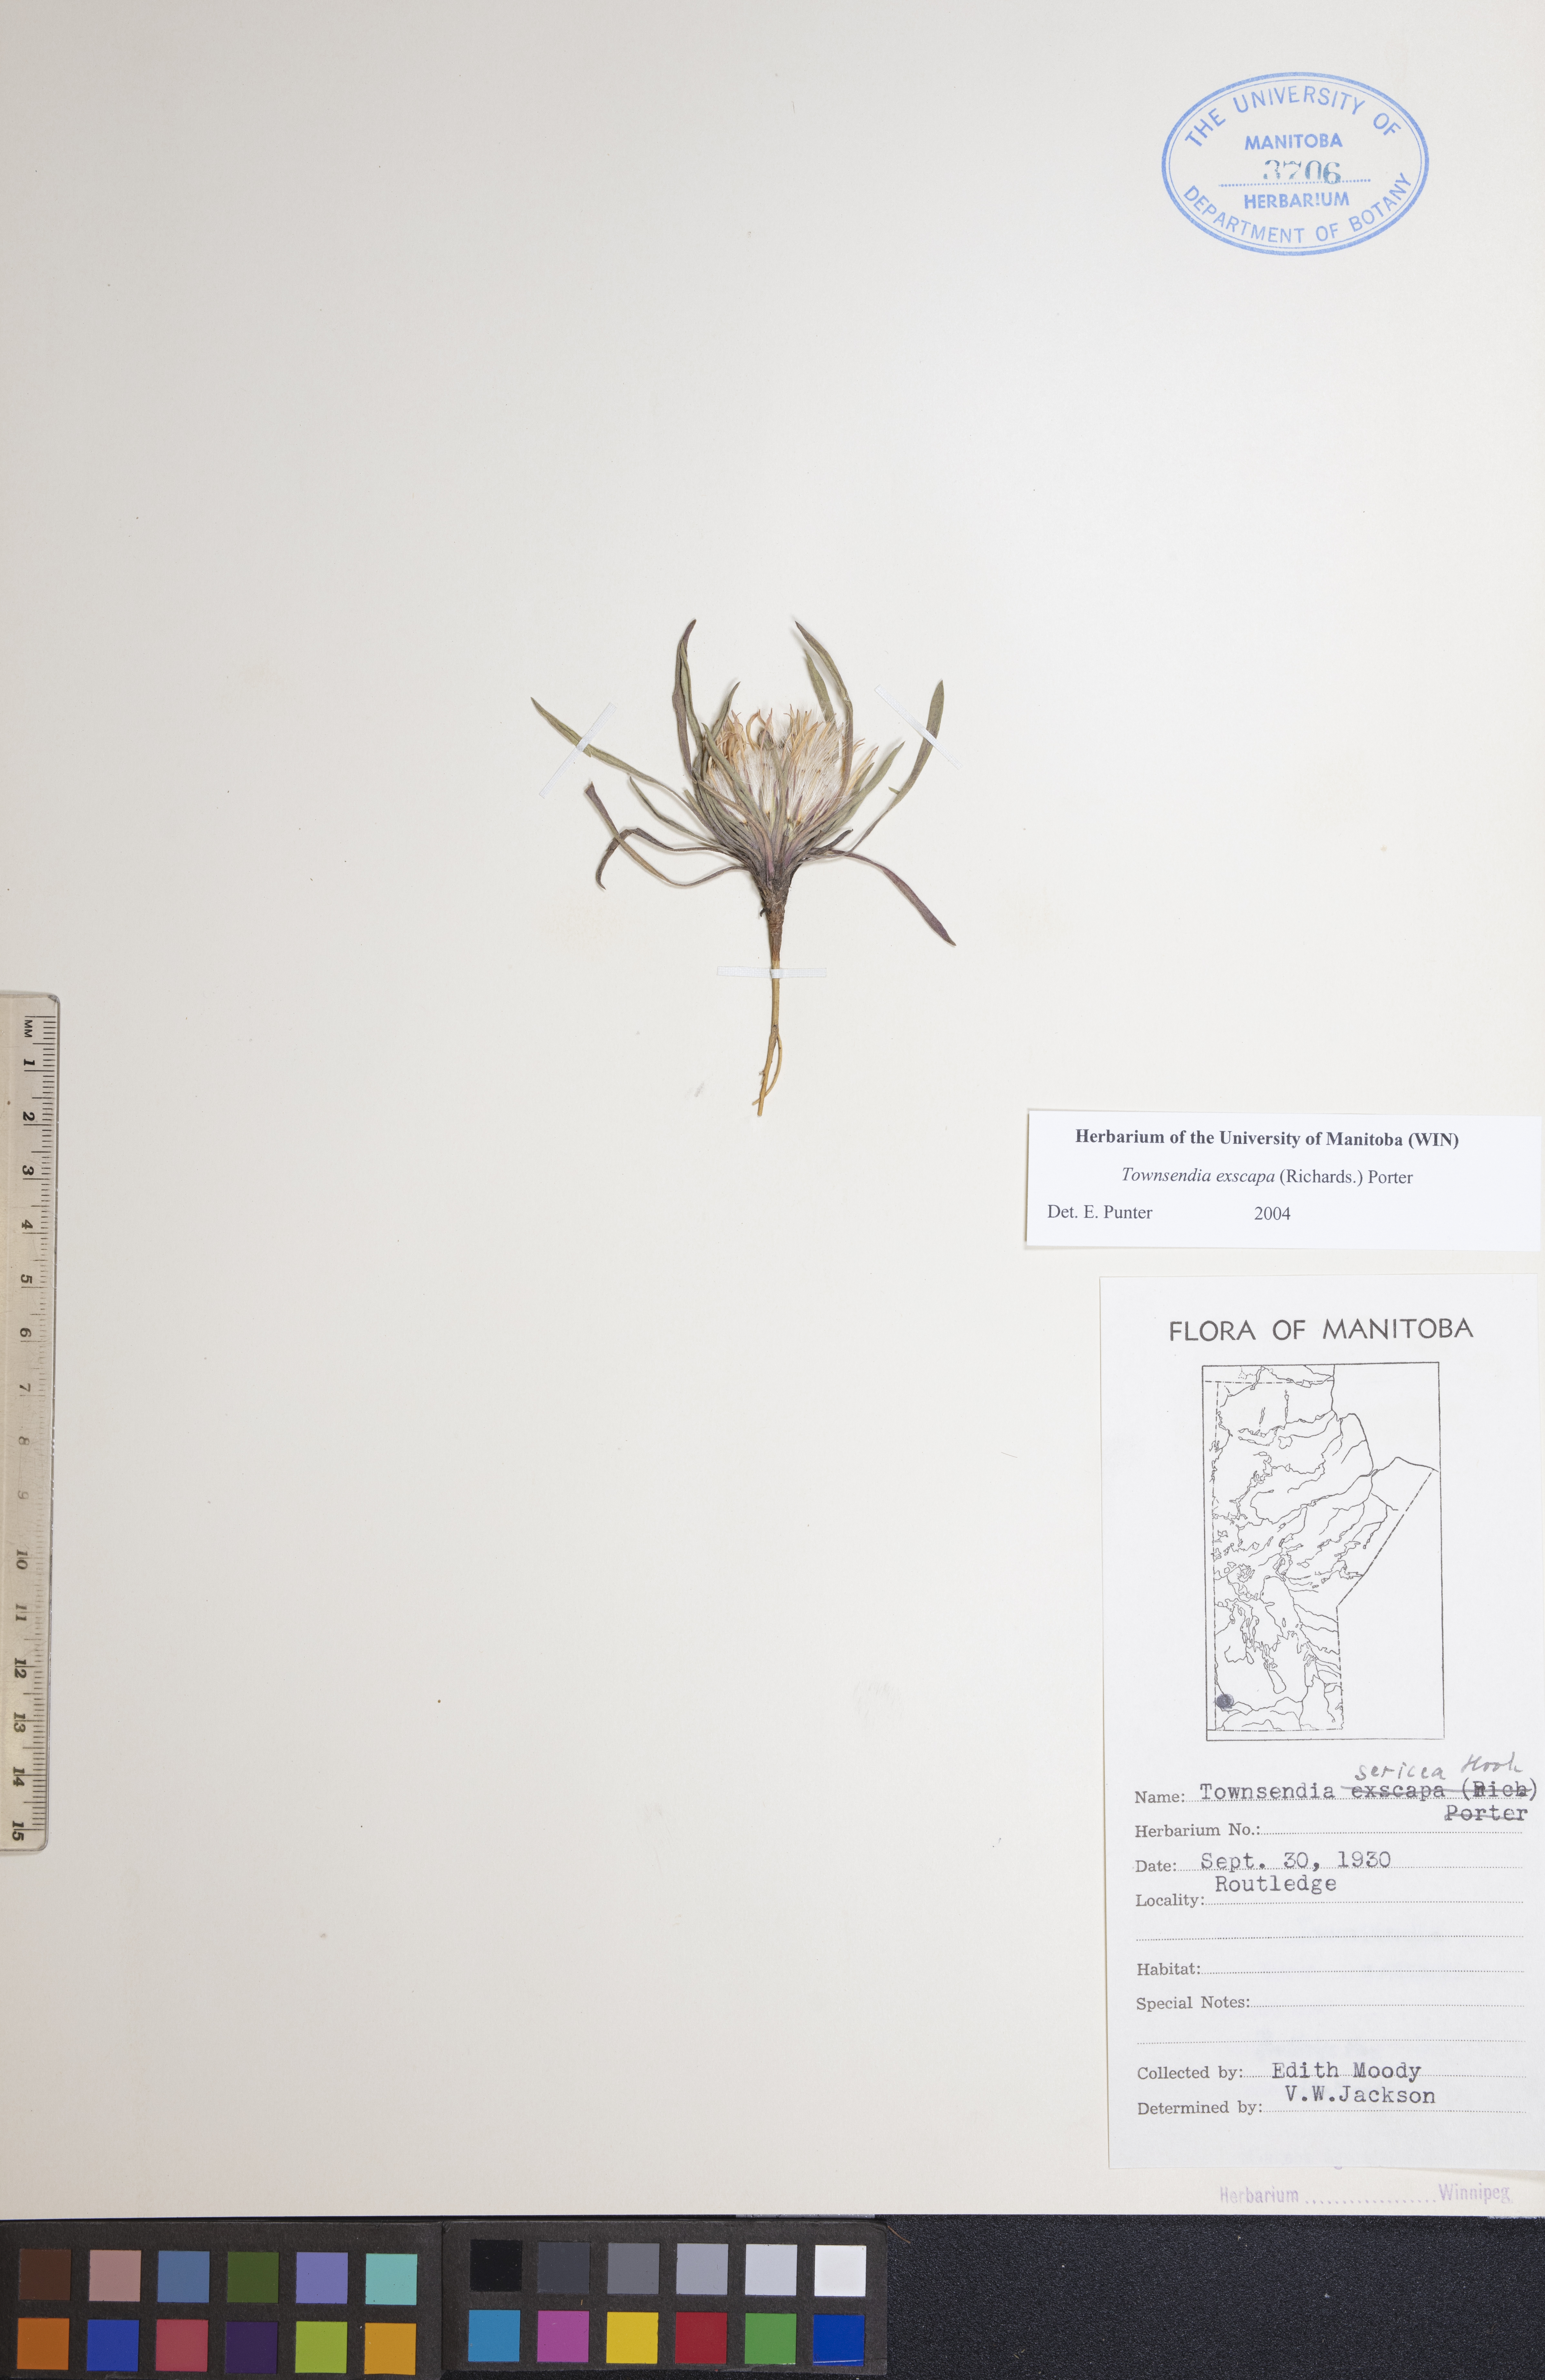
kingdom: Plantae
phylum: Tracheophyta
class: Magnoliopsida
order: Asterales
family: Asteraceae
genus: Townsendia
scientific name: Townsendia exscapa
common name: Dwarf townsendia
